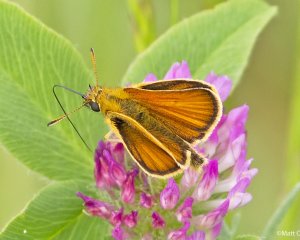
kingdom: Animalia
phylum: Arthropoda
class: Insecta
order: Lepidoptera
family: Hesperiidae
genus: Thymelicus
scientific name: Thymelicus lineola
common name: European Skipper
